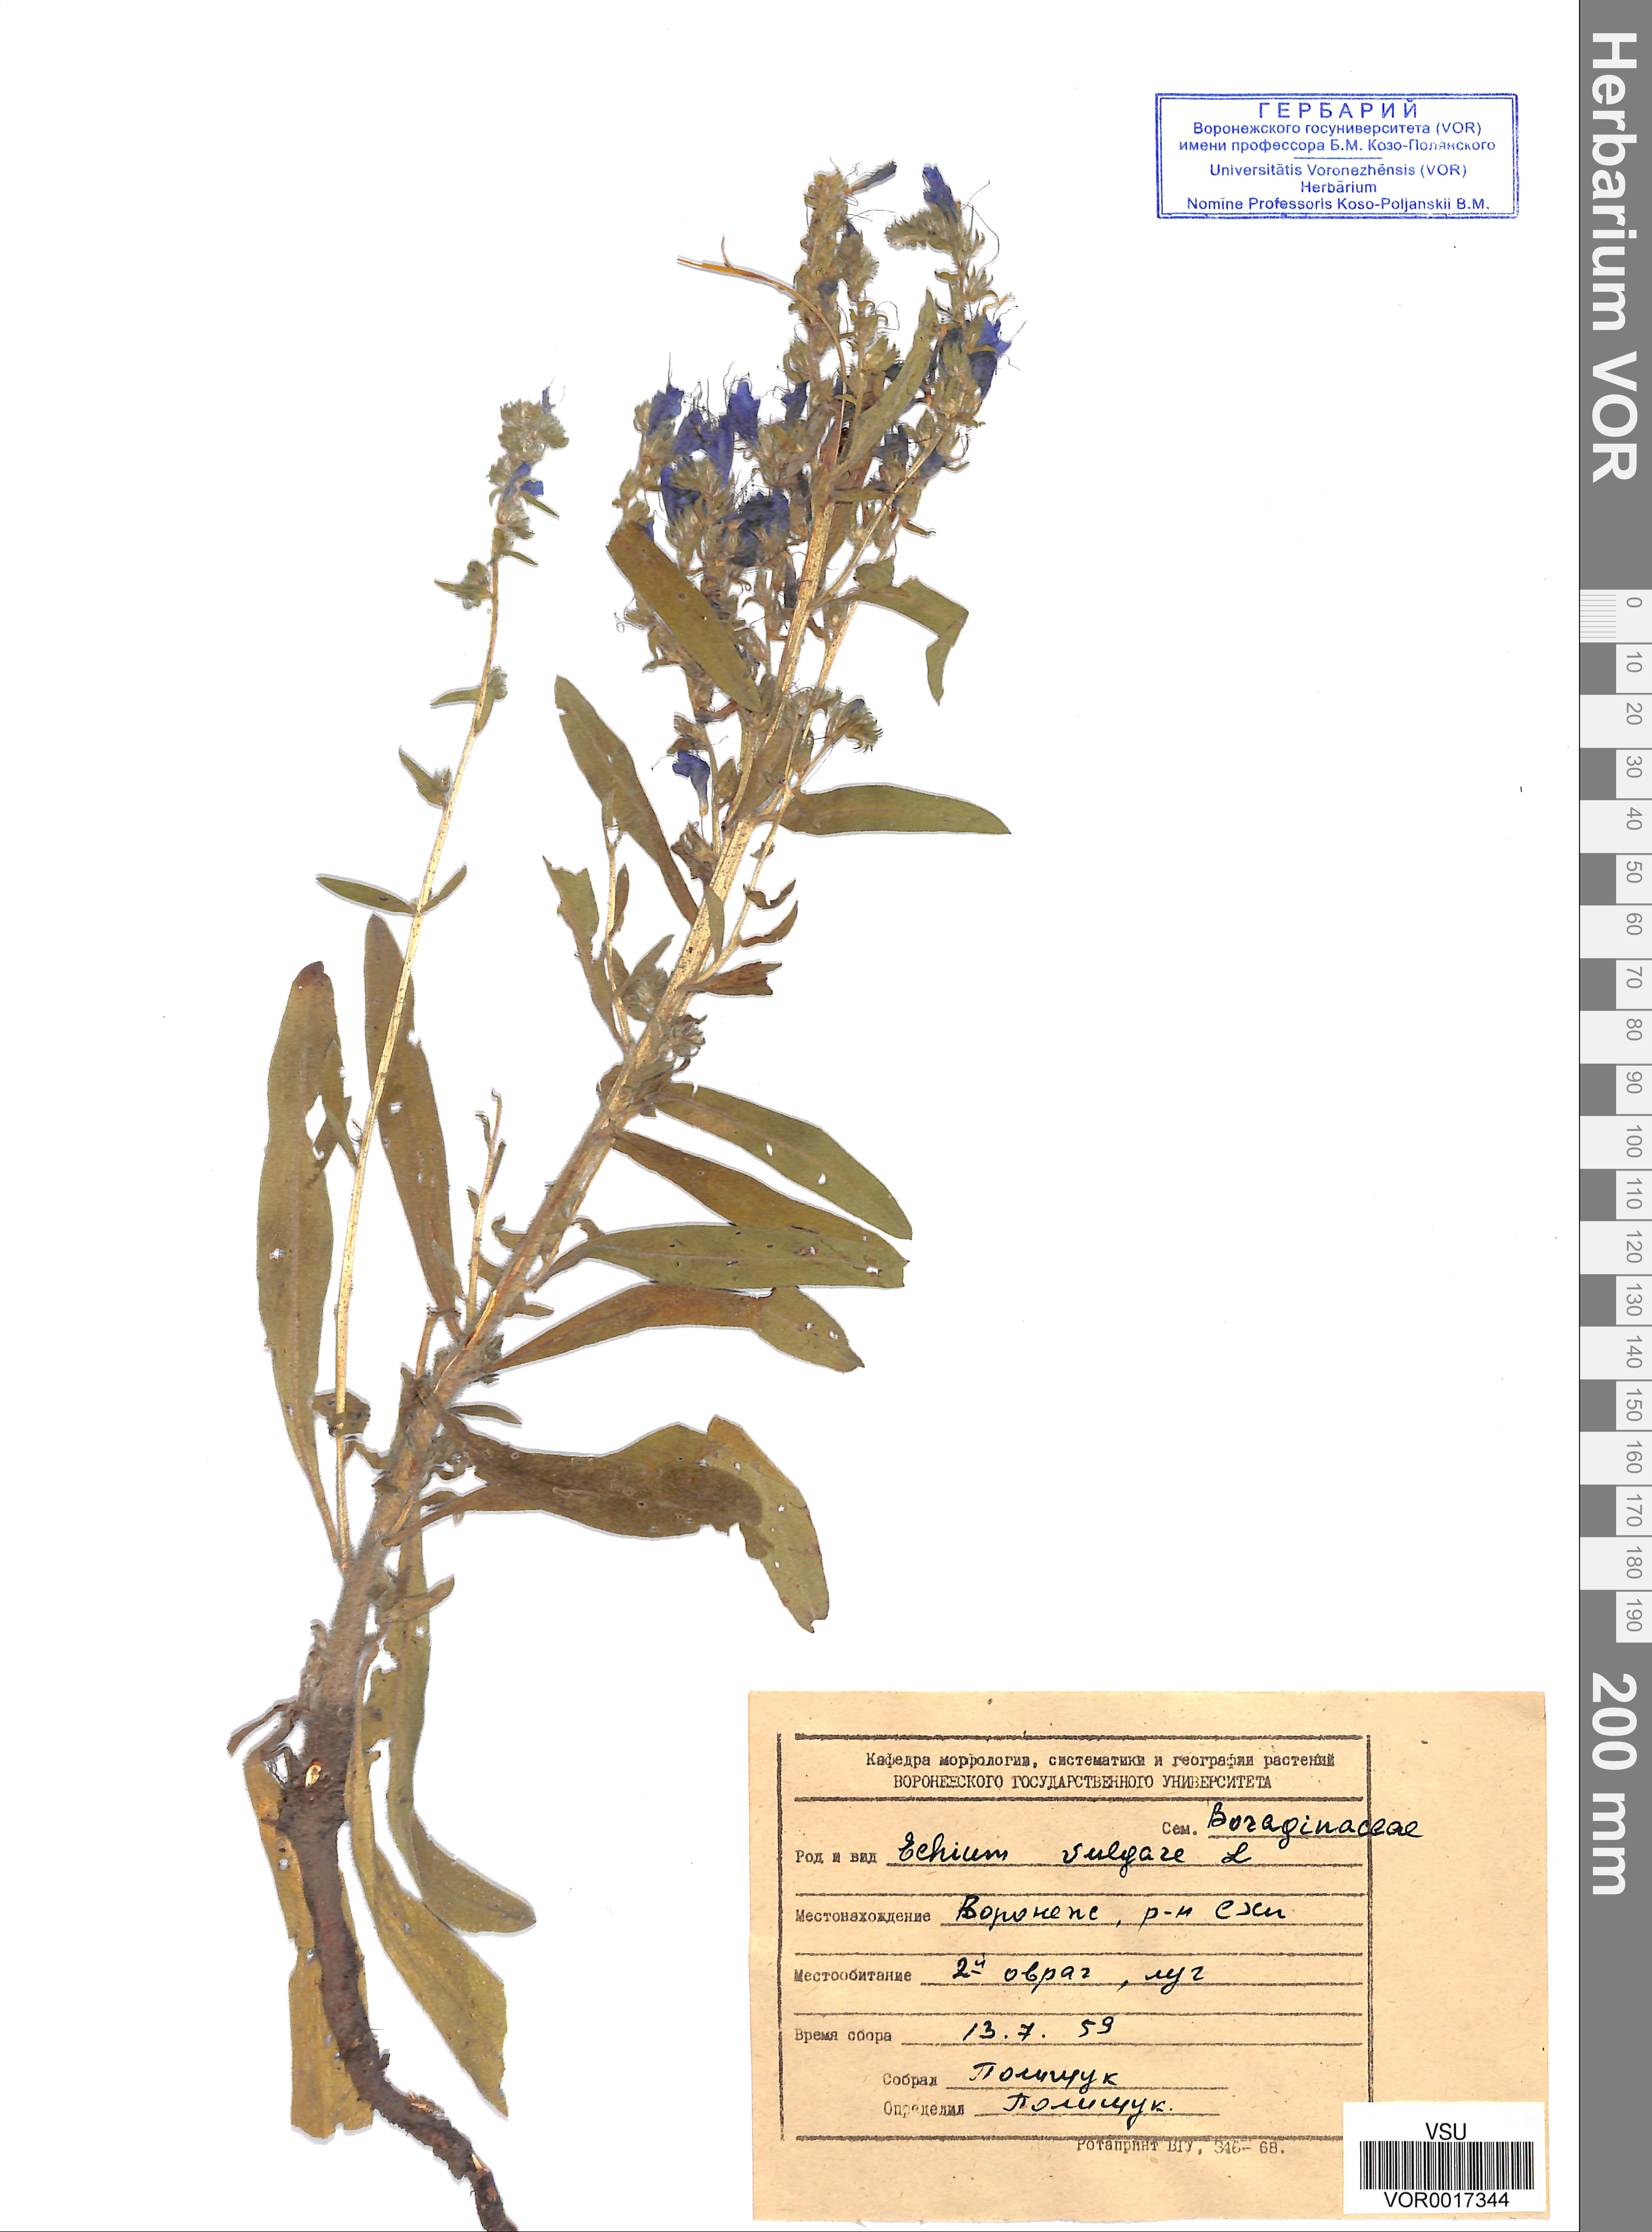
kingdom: Plantae
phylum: Tracheophyta
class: Magnoliopsida
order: Boraginales
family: Boraginaceae
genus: Echium
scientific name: Echium vulgare
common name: Common viper's bugloss
